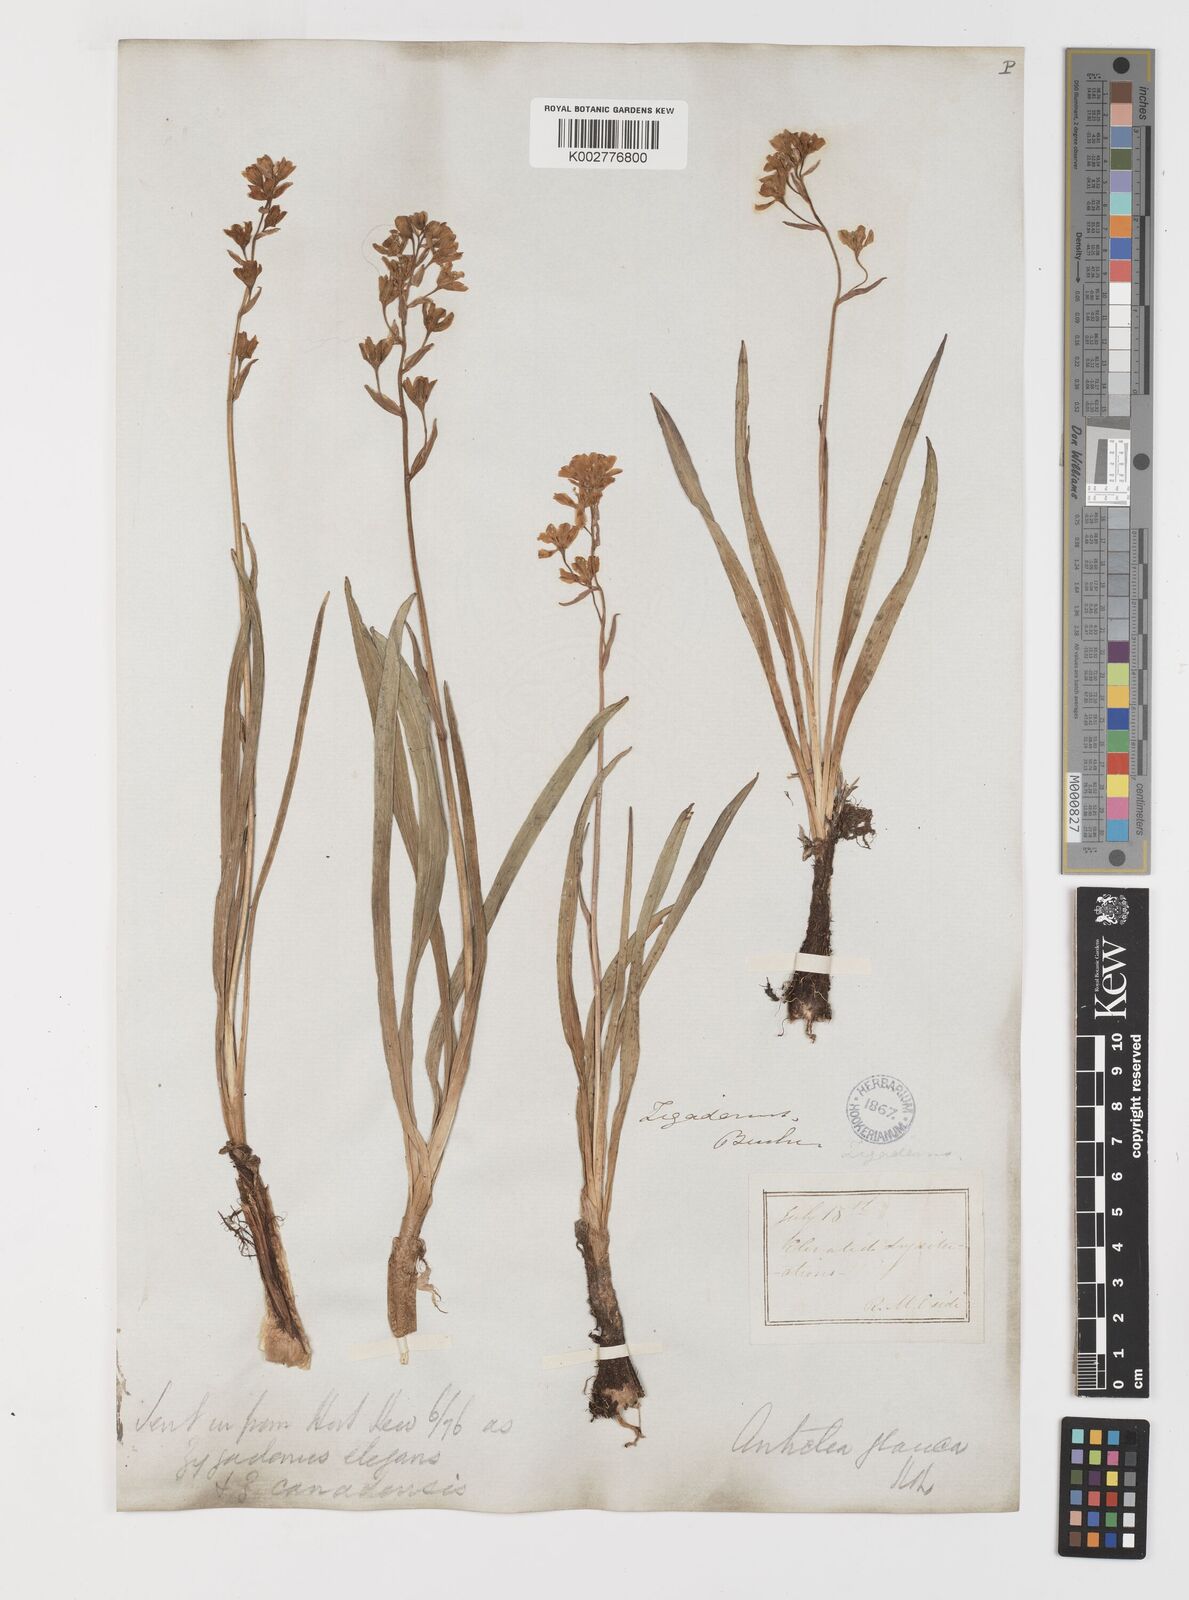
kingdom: Plantae
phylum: Tracheophyta
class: Liliopsida
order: Liliales
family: Melanthiaceae
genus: Anticlea
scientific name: Anticlea elegans
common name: Mountain death camas
